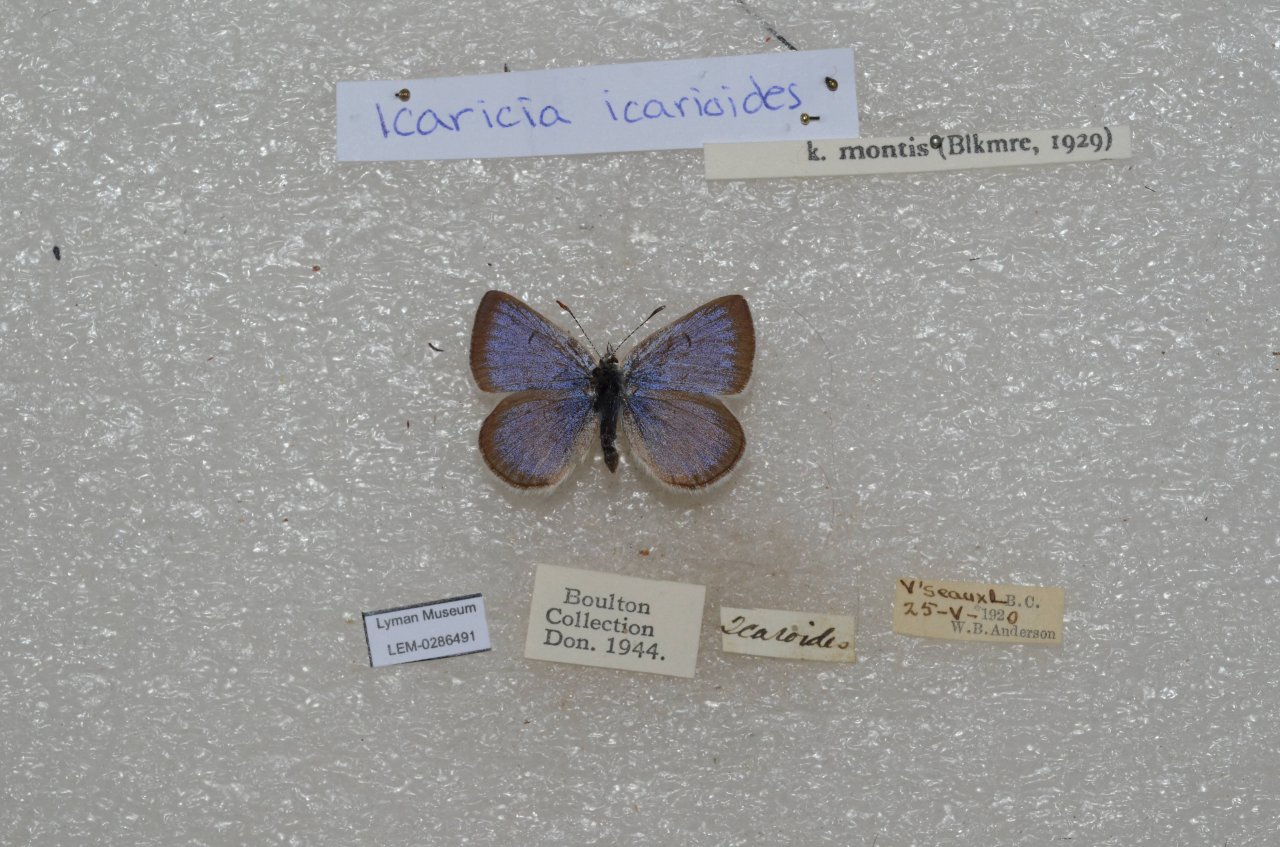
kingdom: Animalia
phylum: Arthropoda
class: Insecta
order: Lepidoptera
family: Lycaenidae
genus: Icaricia
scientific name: Icaricia icarioides
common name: Boisduval's Blue
